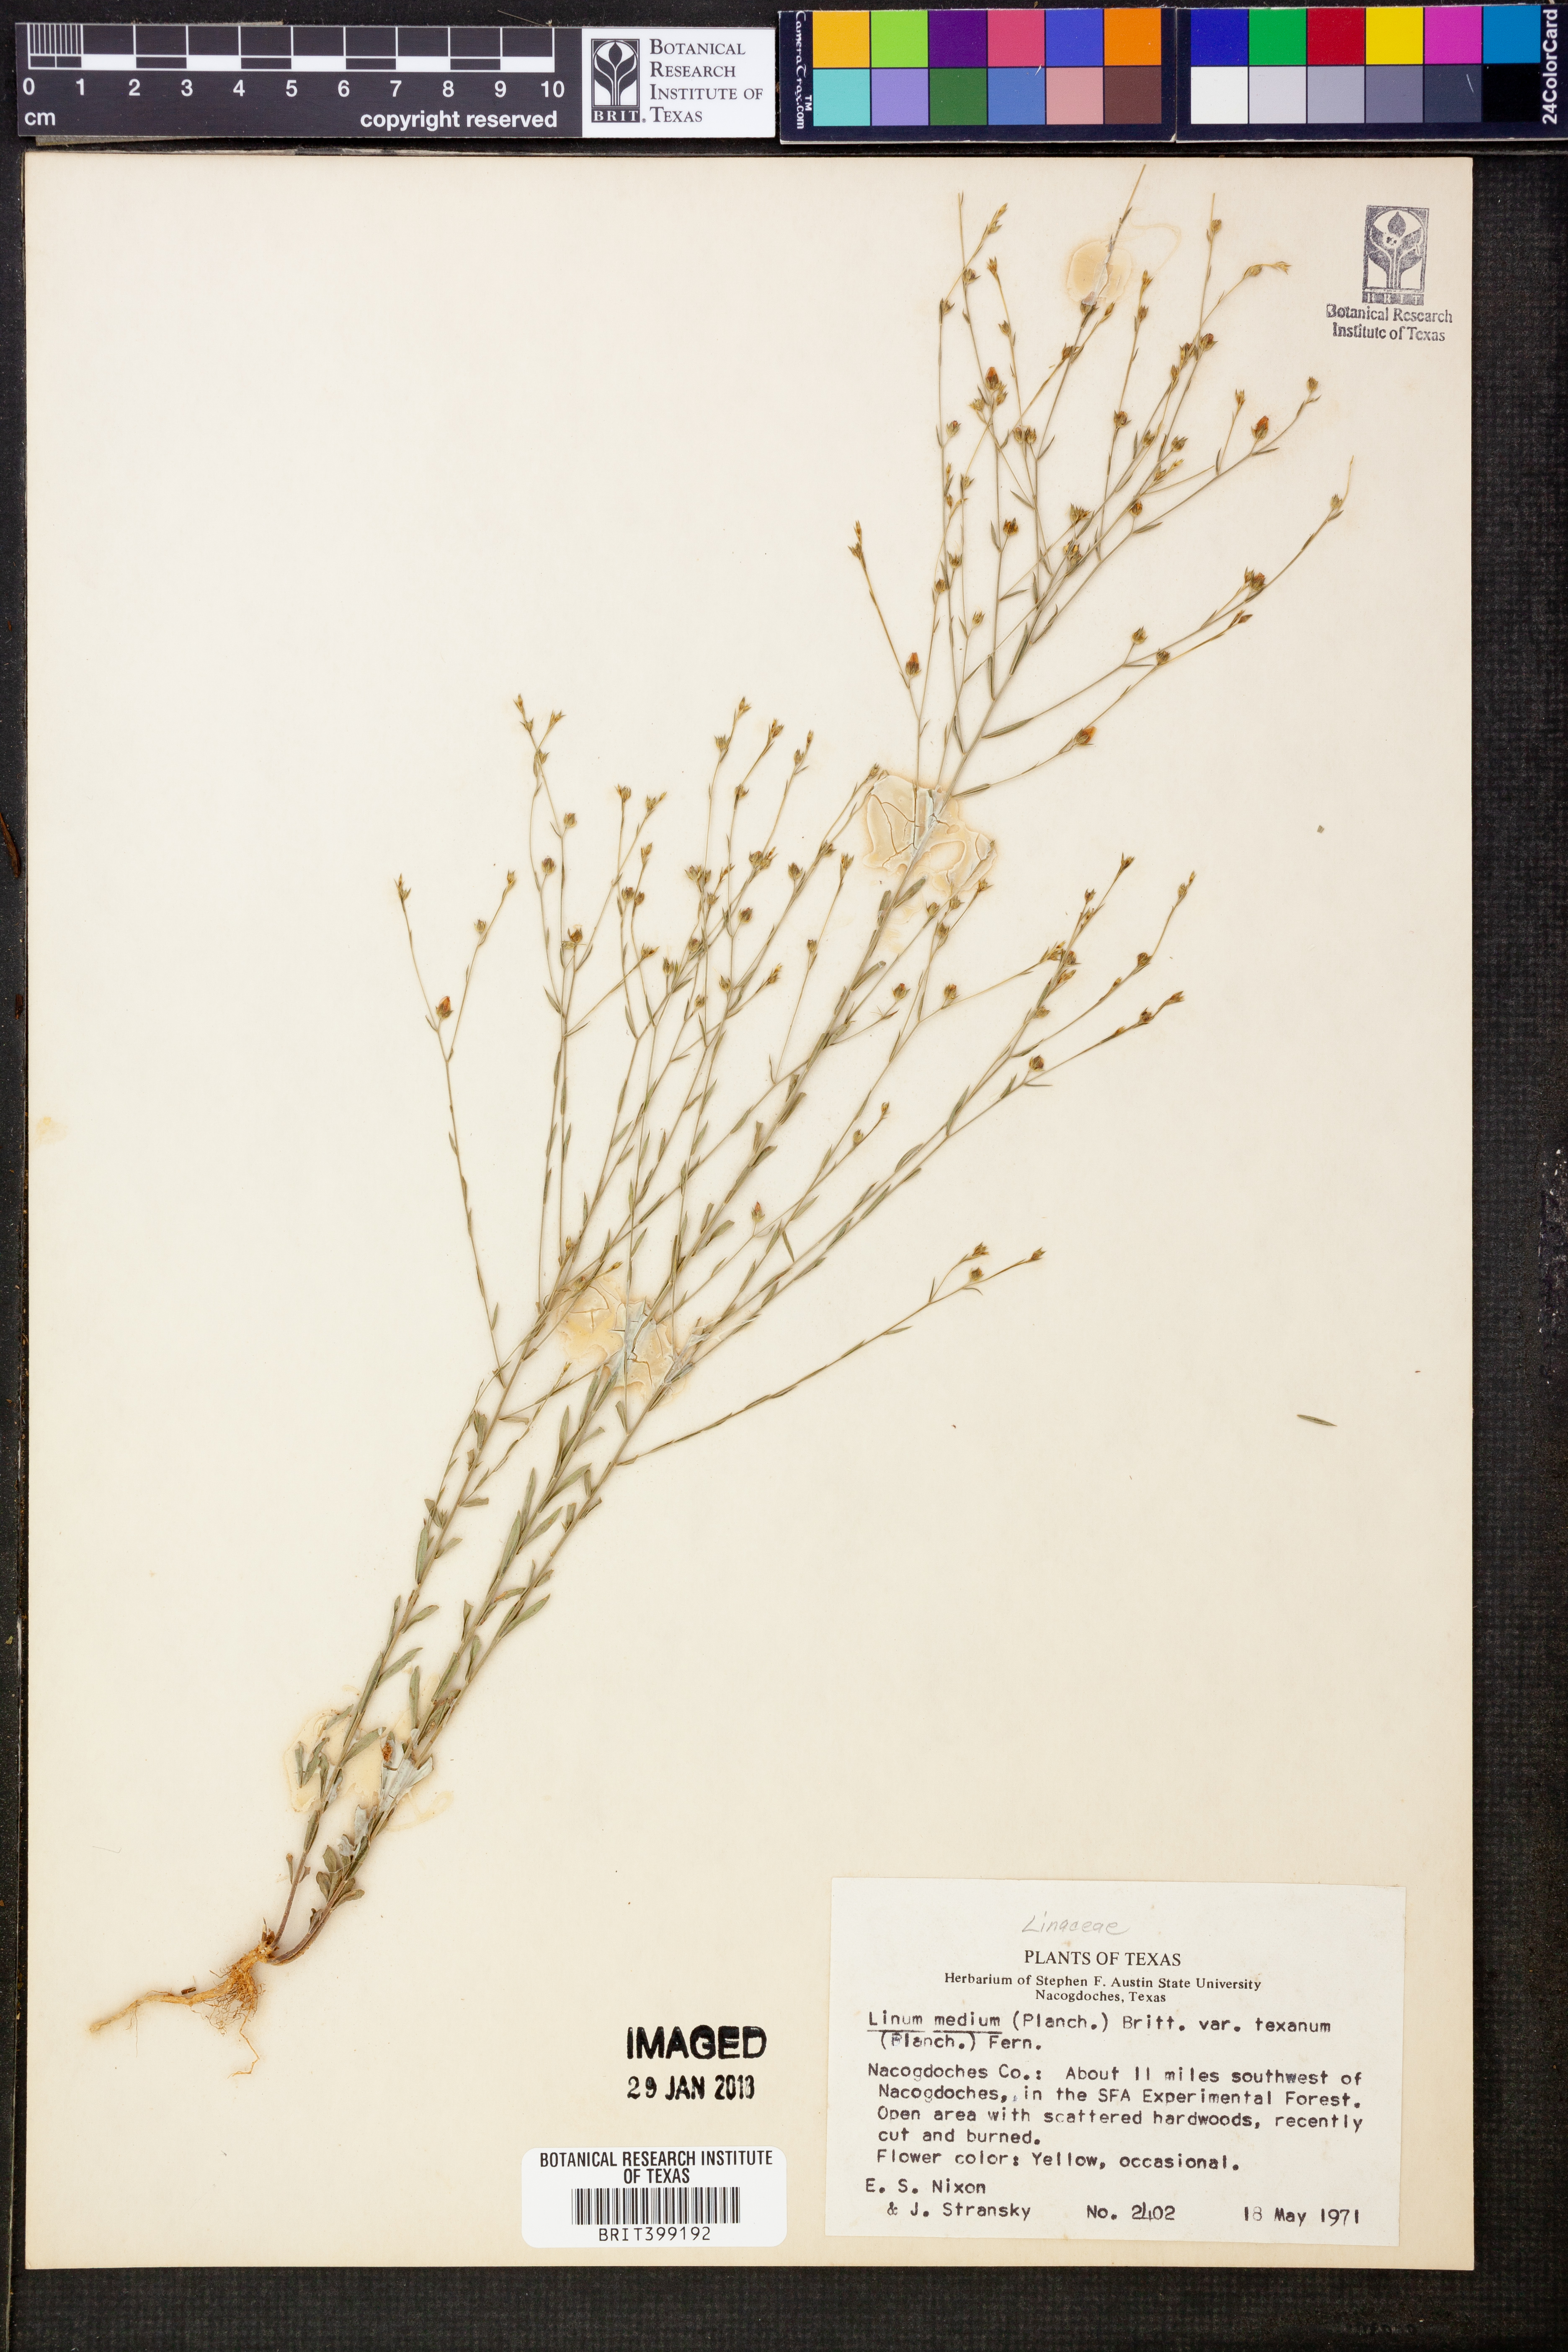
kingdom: Plantae
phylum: Tracheophyta
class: Magnoliopsida
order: Malpighiales
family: Linaceae
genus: Linum
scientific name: Linum medium
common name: Stiff yellow flax
